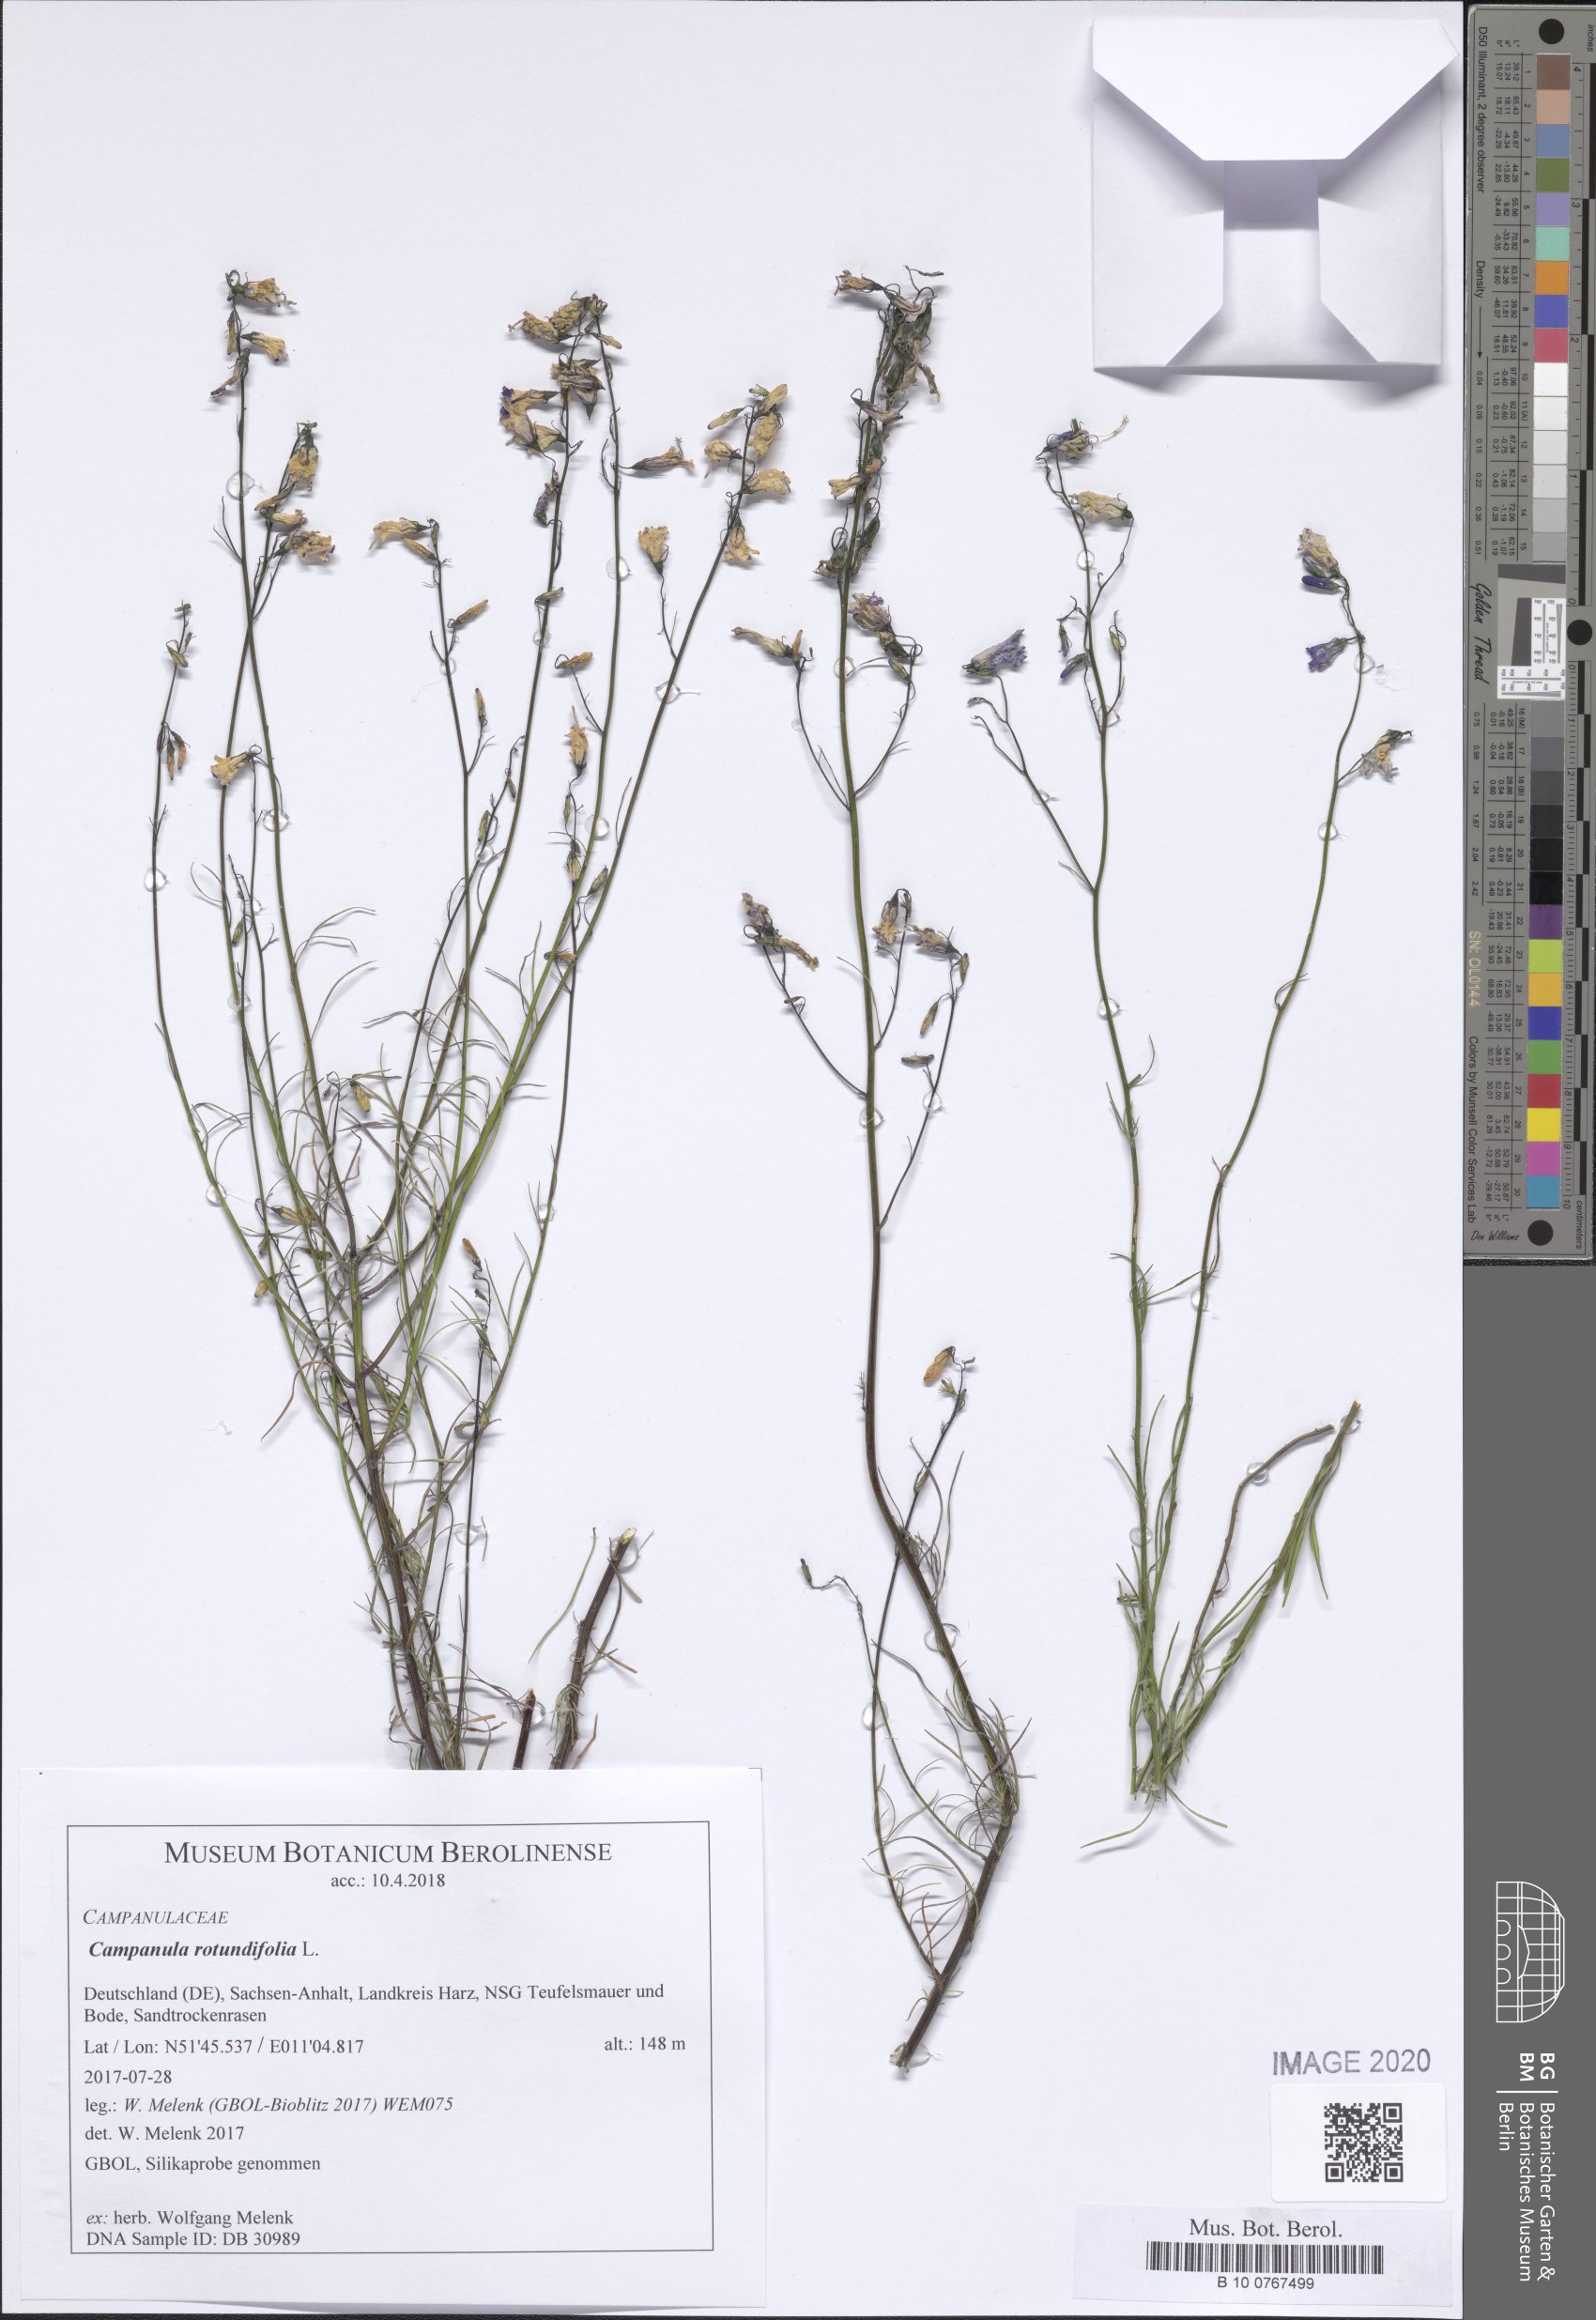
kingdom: Plantae
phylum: Tracheophyta
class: Magnoliopsida
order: Asterales
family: Campanulaceae
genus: Campanula
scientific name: Campanula rotundifolia
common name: Harebell
